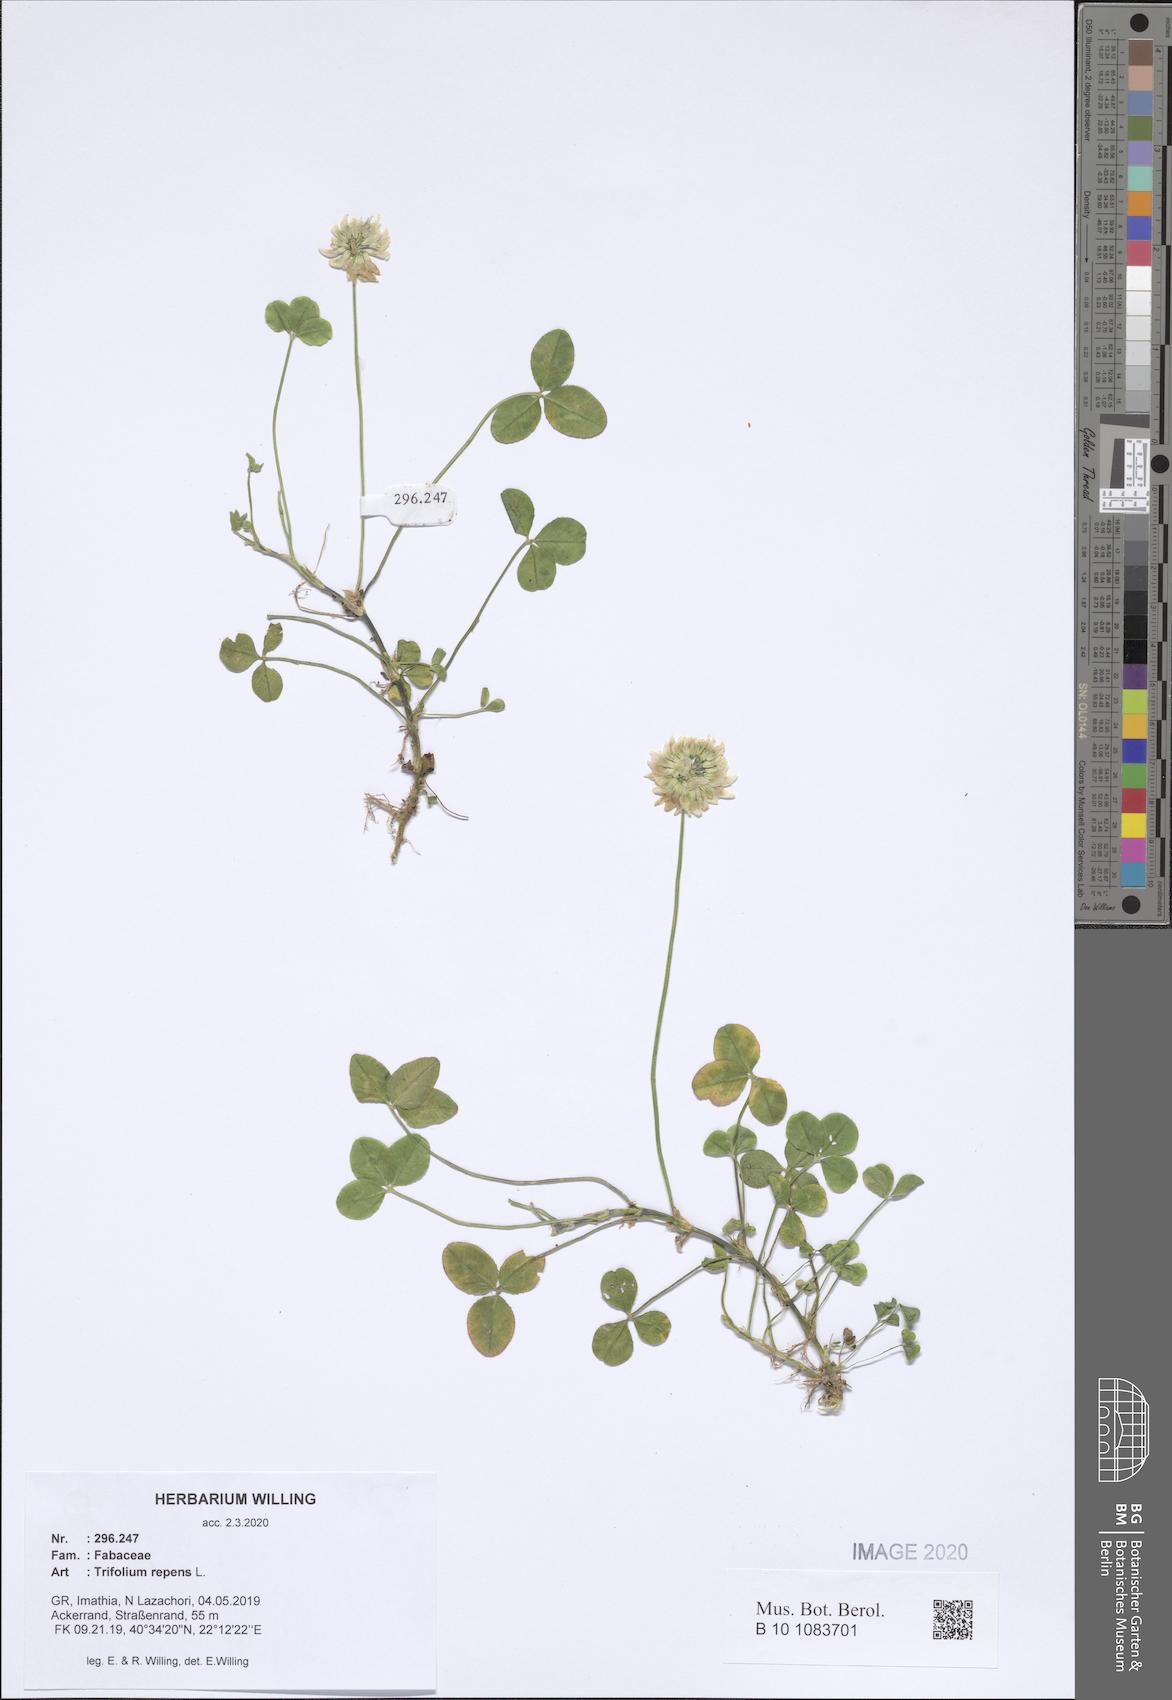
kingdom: Plantae
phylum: Tracheophyta
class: Magnoliopsida
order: Fabales
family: Fabaceae
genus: Trifolium
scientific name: Trifolium repens
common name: White clover
